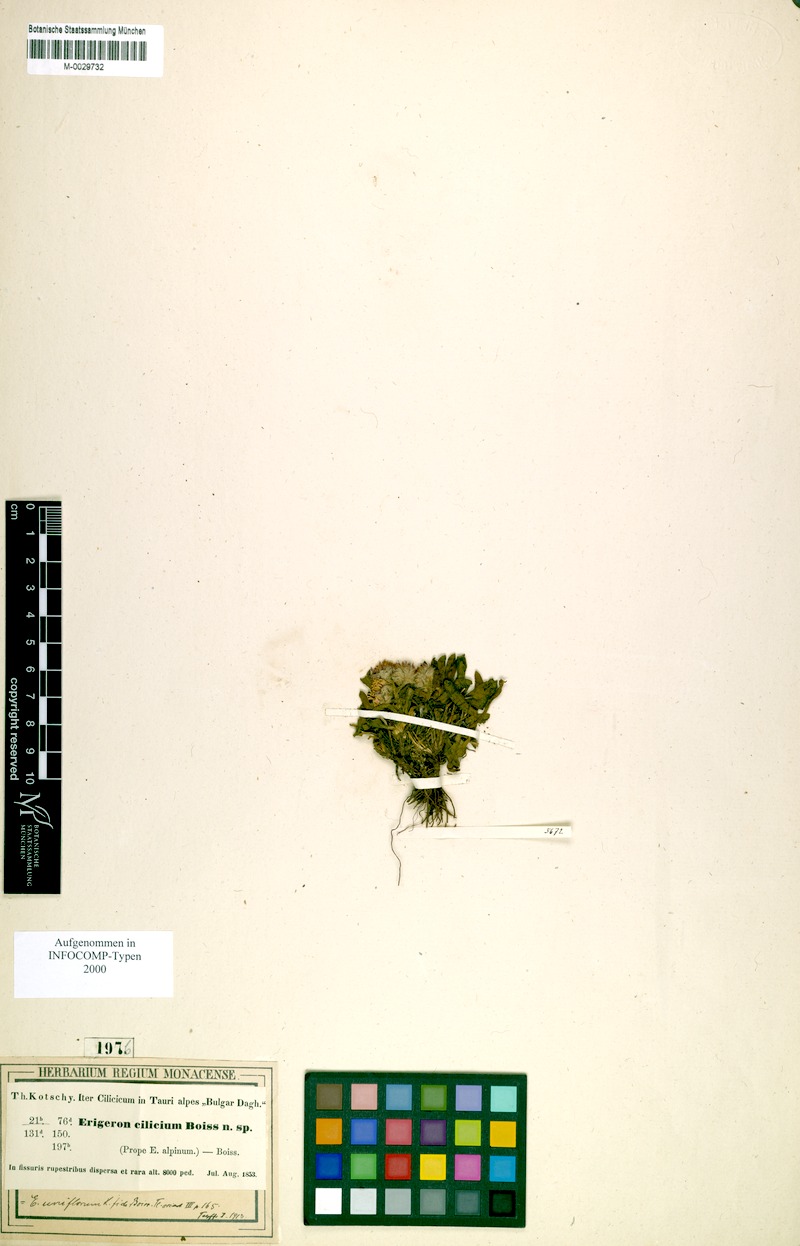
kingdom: Plantae
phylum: Tracheophyta
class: Magnoliopsida
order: Asterales
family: Asteraceae
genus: Erigeron
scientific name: Erigeron uniflorus
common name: Northern daisy
